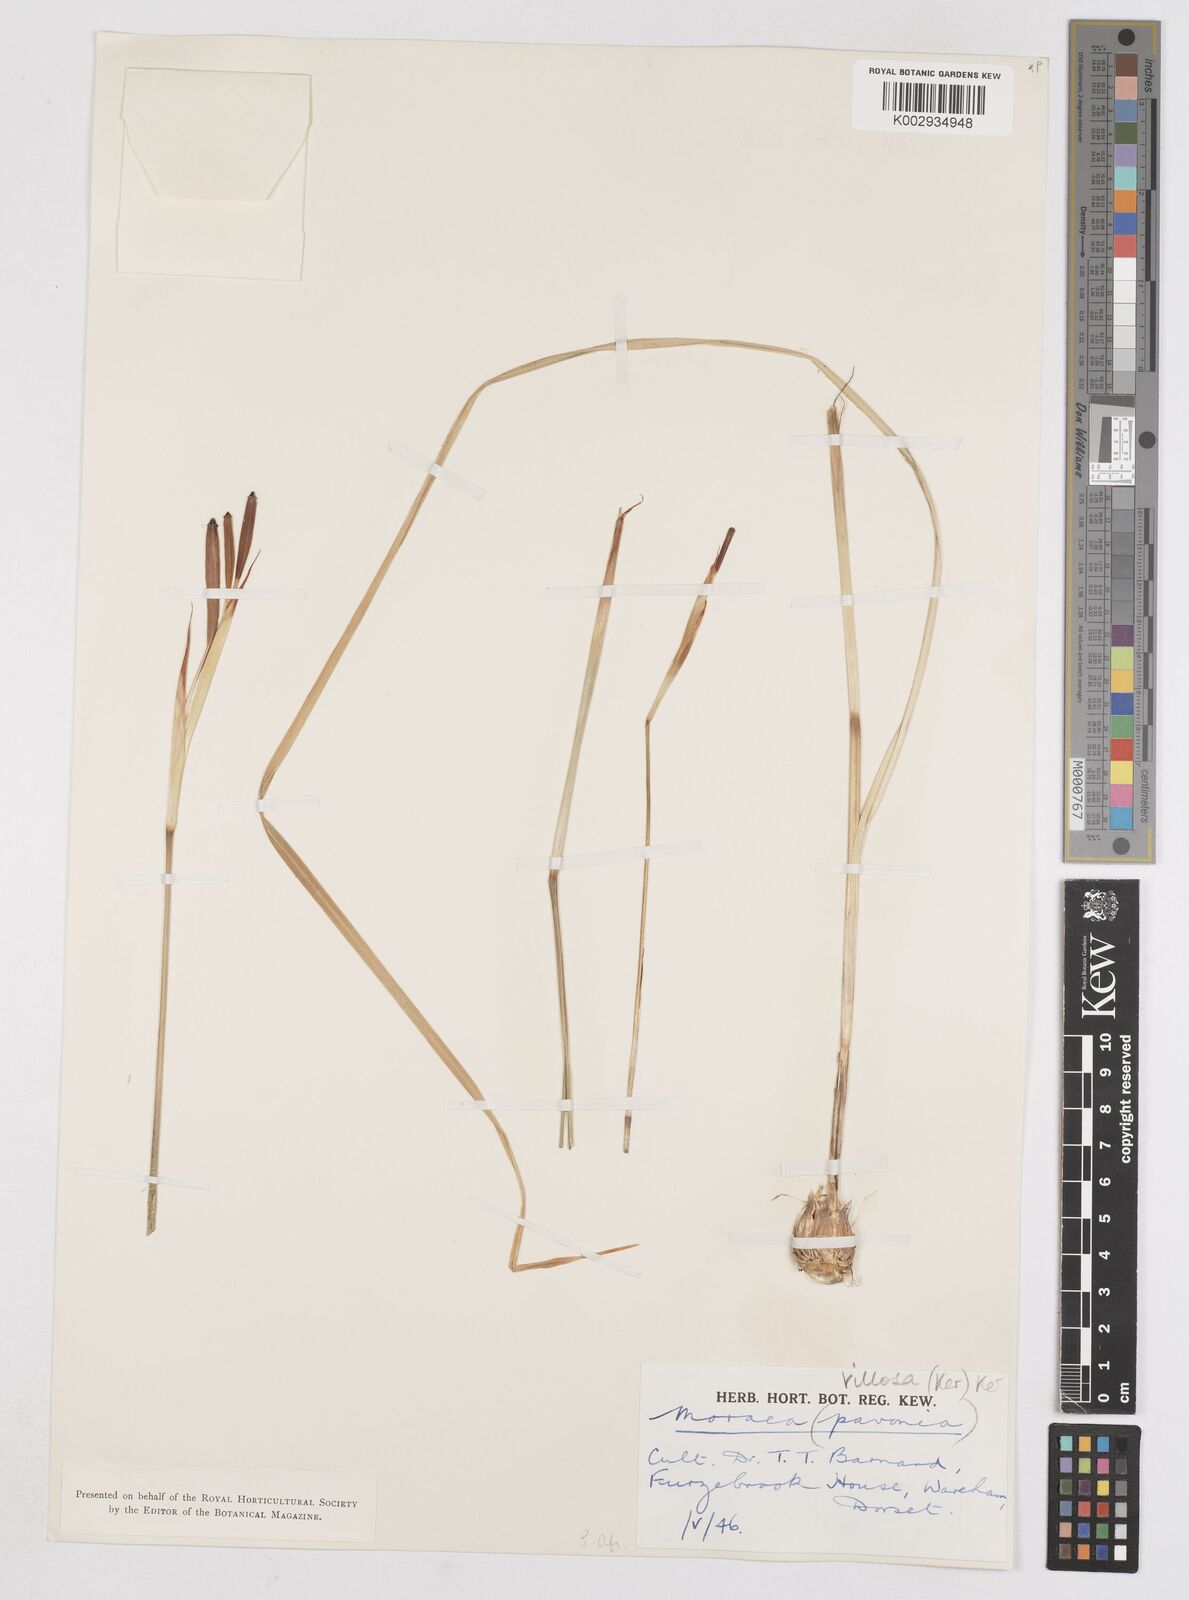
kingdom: Plantae
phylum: Tracheophyta
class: Liliopsida
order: Asparagales
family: Iridaceae
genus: Moraea
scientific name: Moraea villosa
